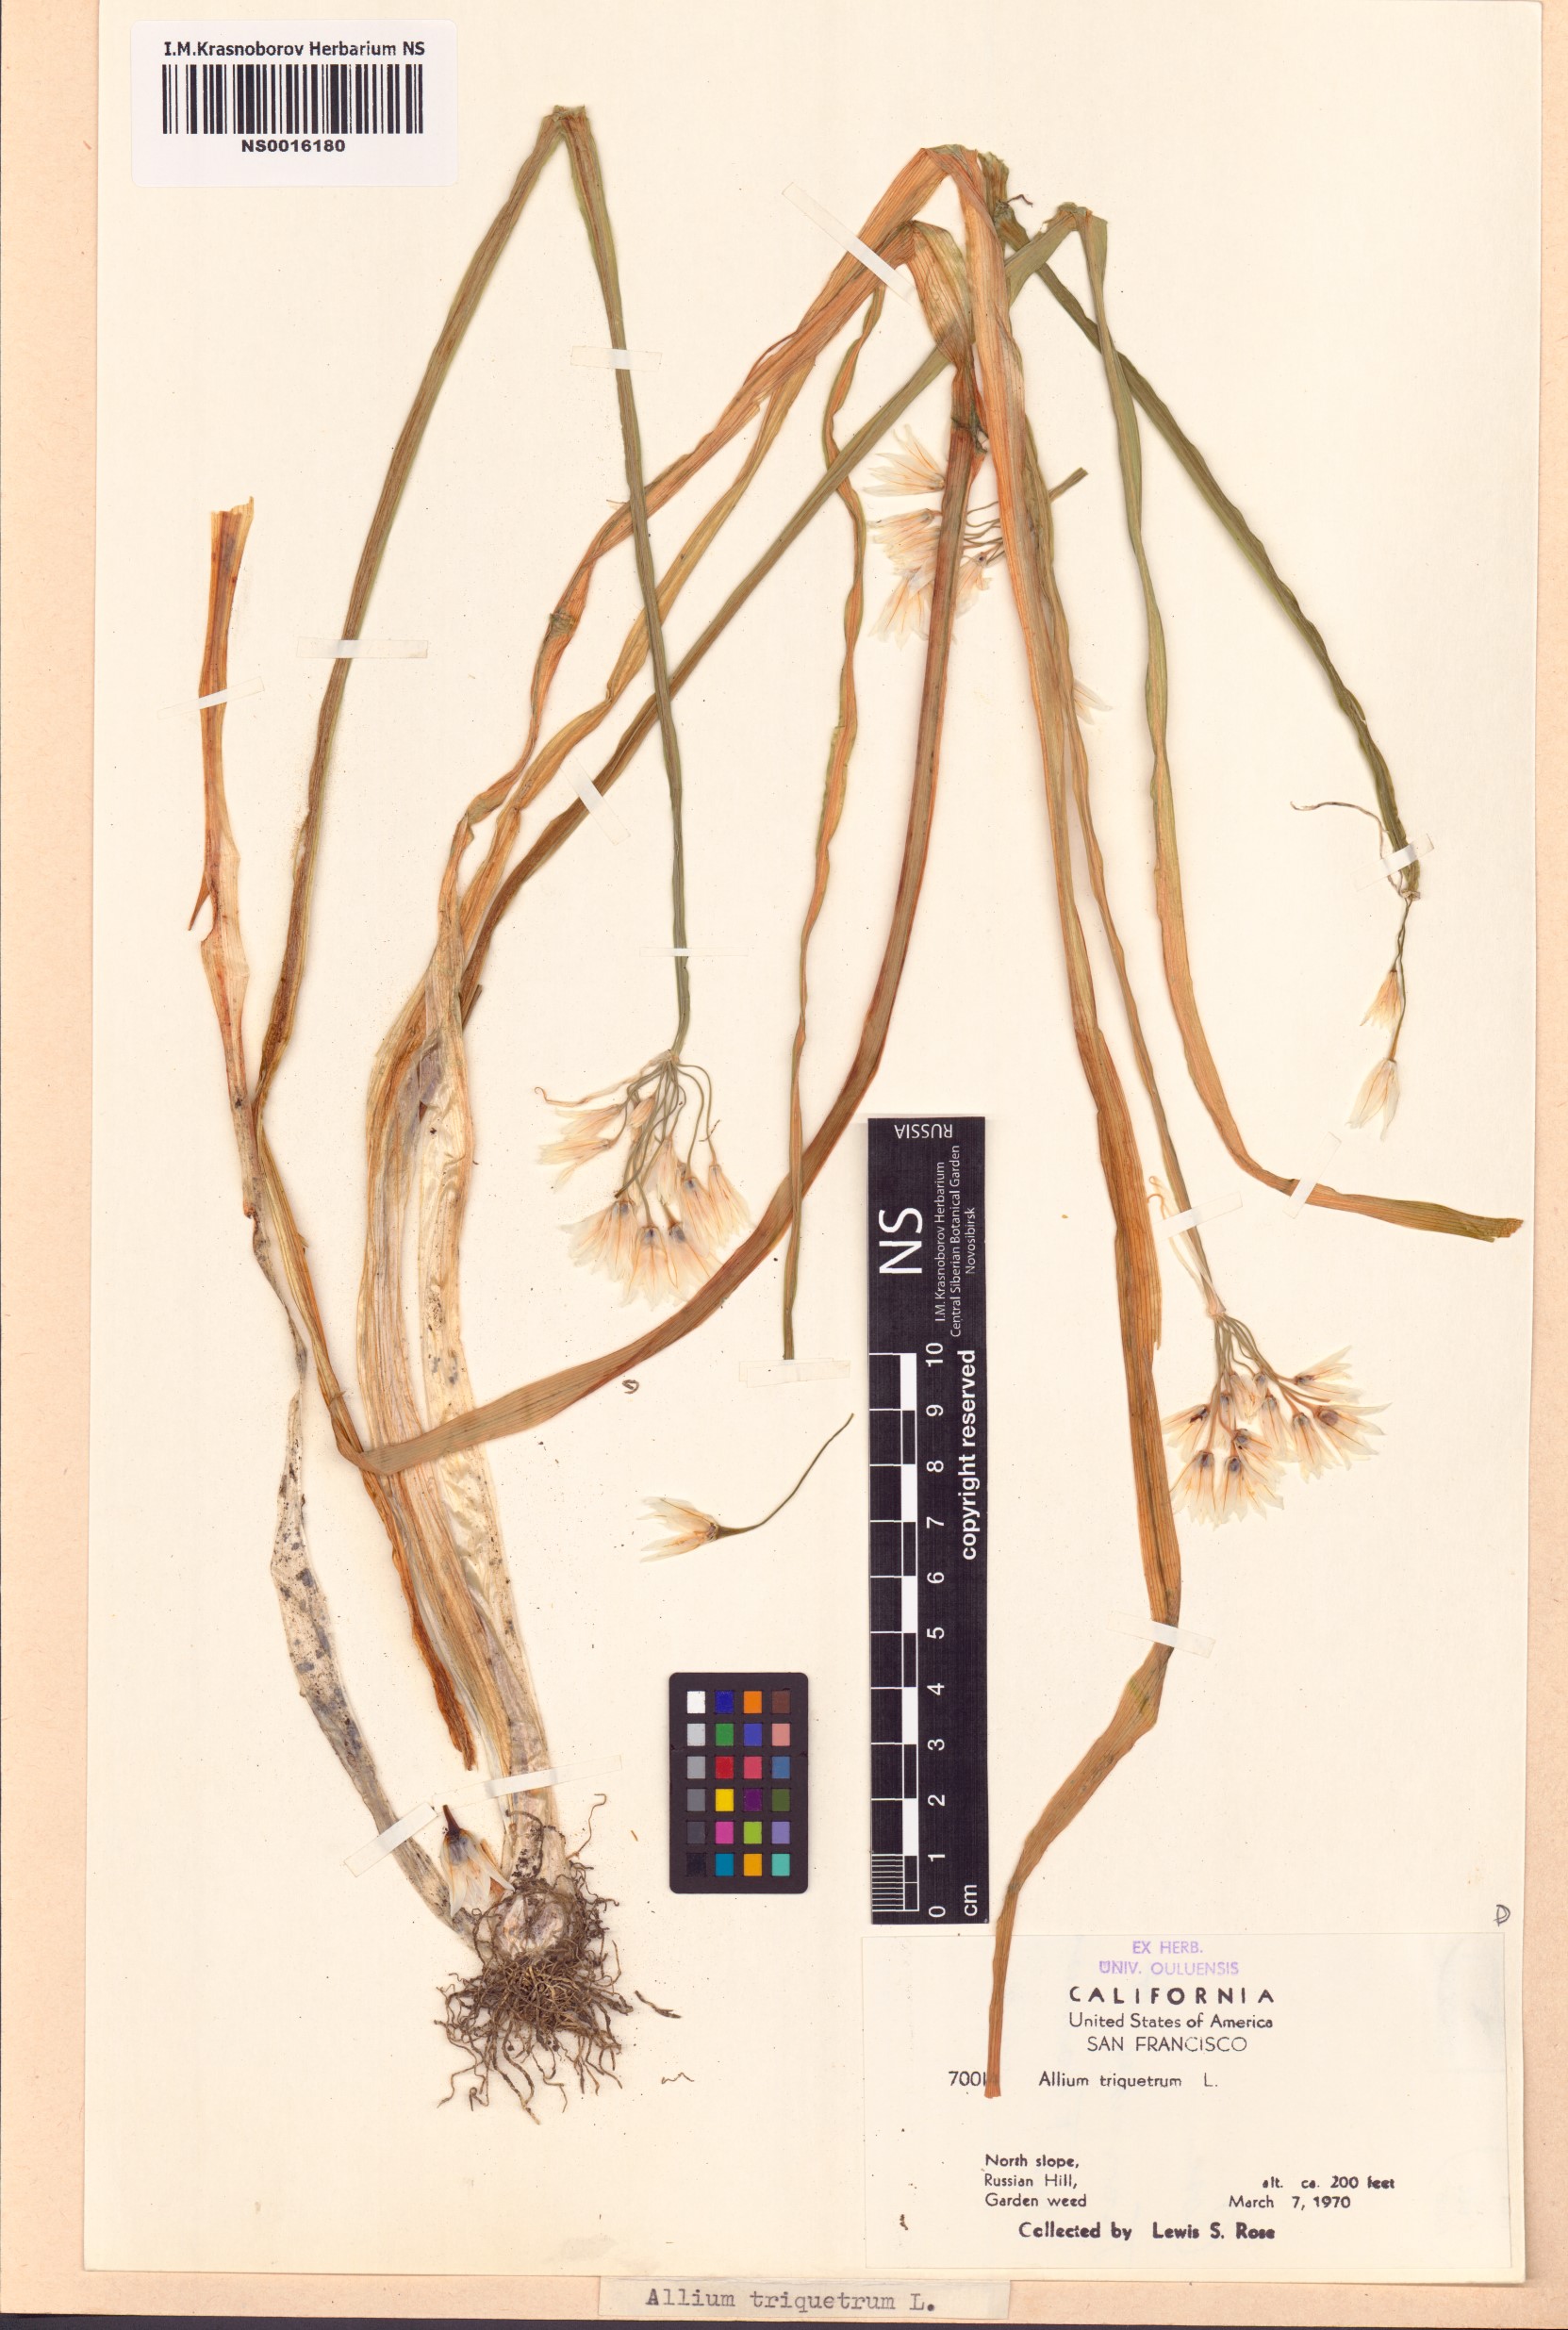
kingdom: Plantae
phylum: Tracheophyta
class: Liliopsida
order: Asparagales
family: Amaryllidaceae
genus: Allium
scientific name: Allium triquetrum
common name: Three-cornered garlic
